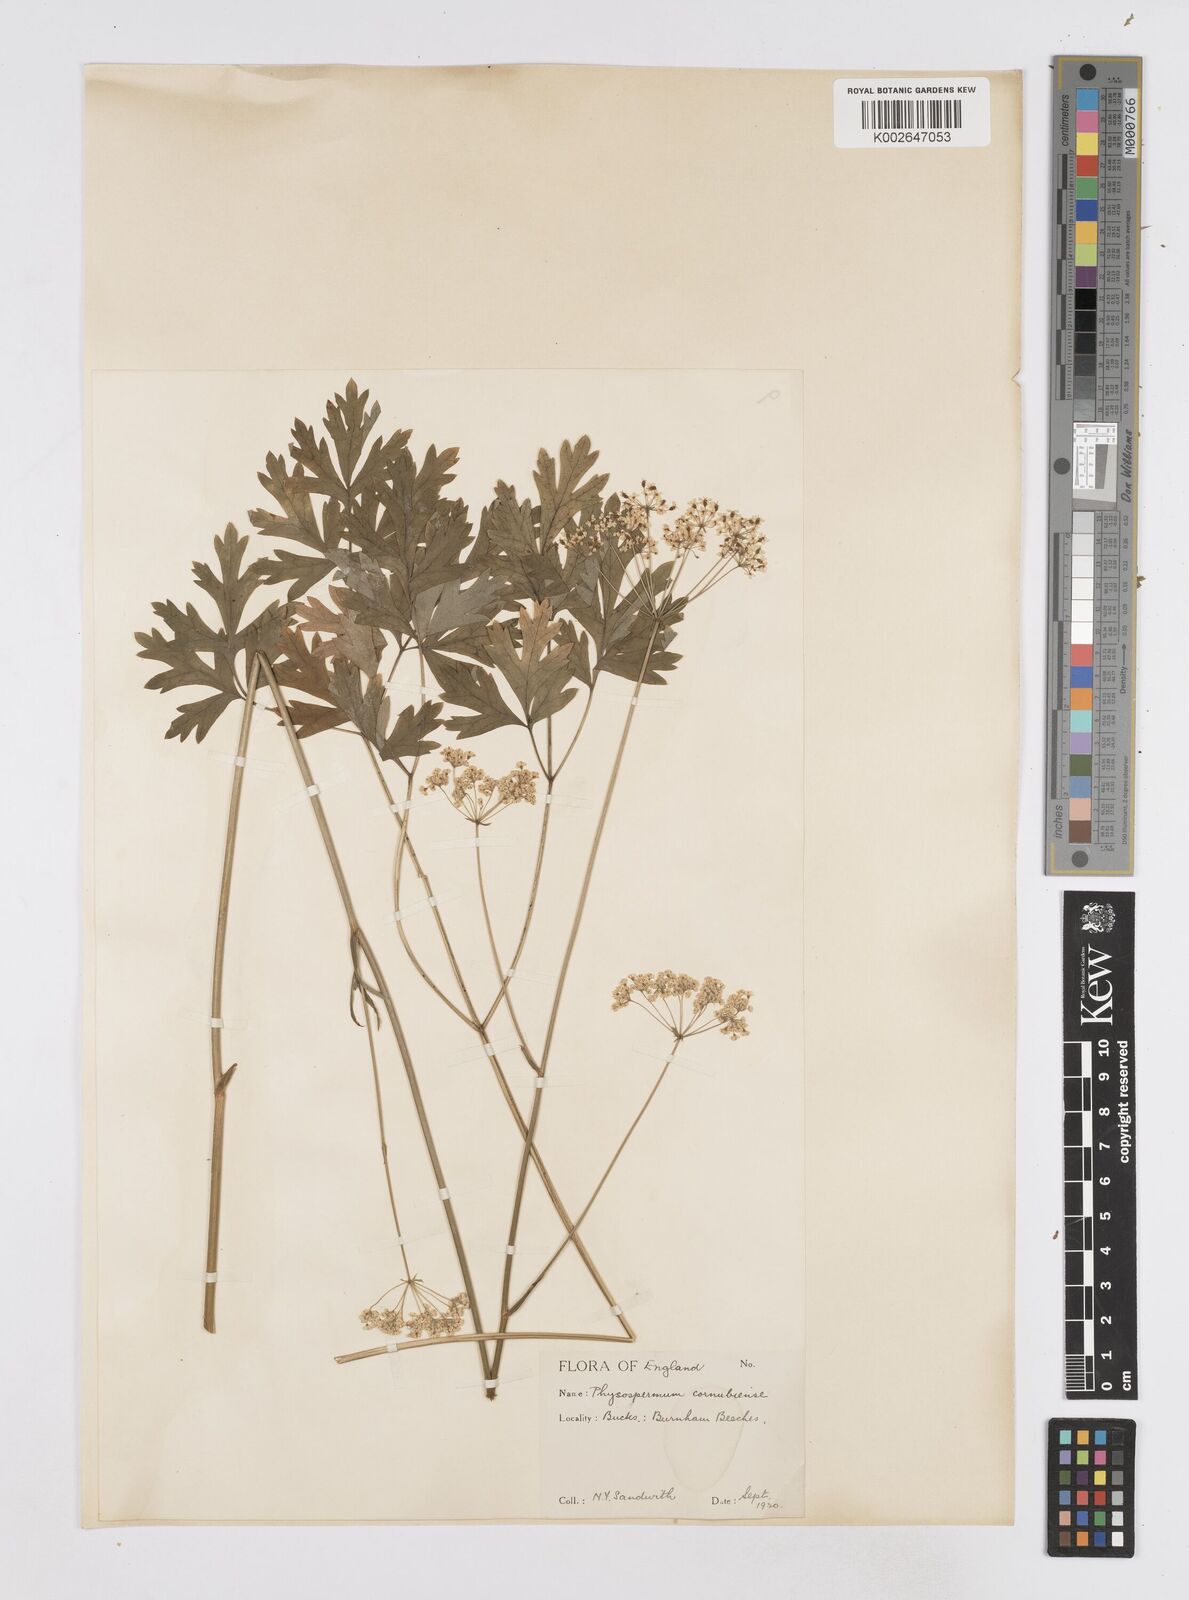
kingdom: Plantae
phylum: Tracheophyta
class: Magnoliopsida
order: Apiales
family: Apiaceae
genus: Physospermum
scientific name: Physospermum cornubiense
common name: Bladderseed
